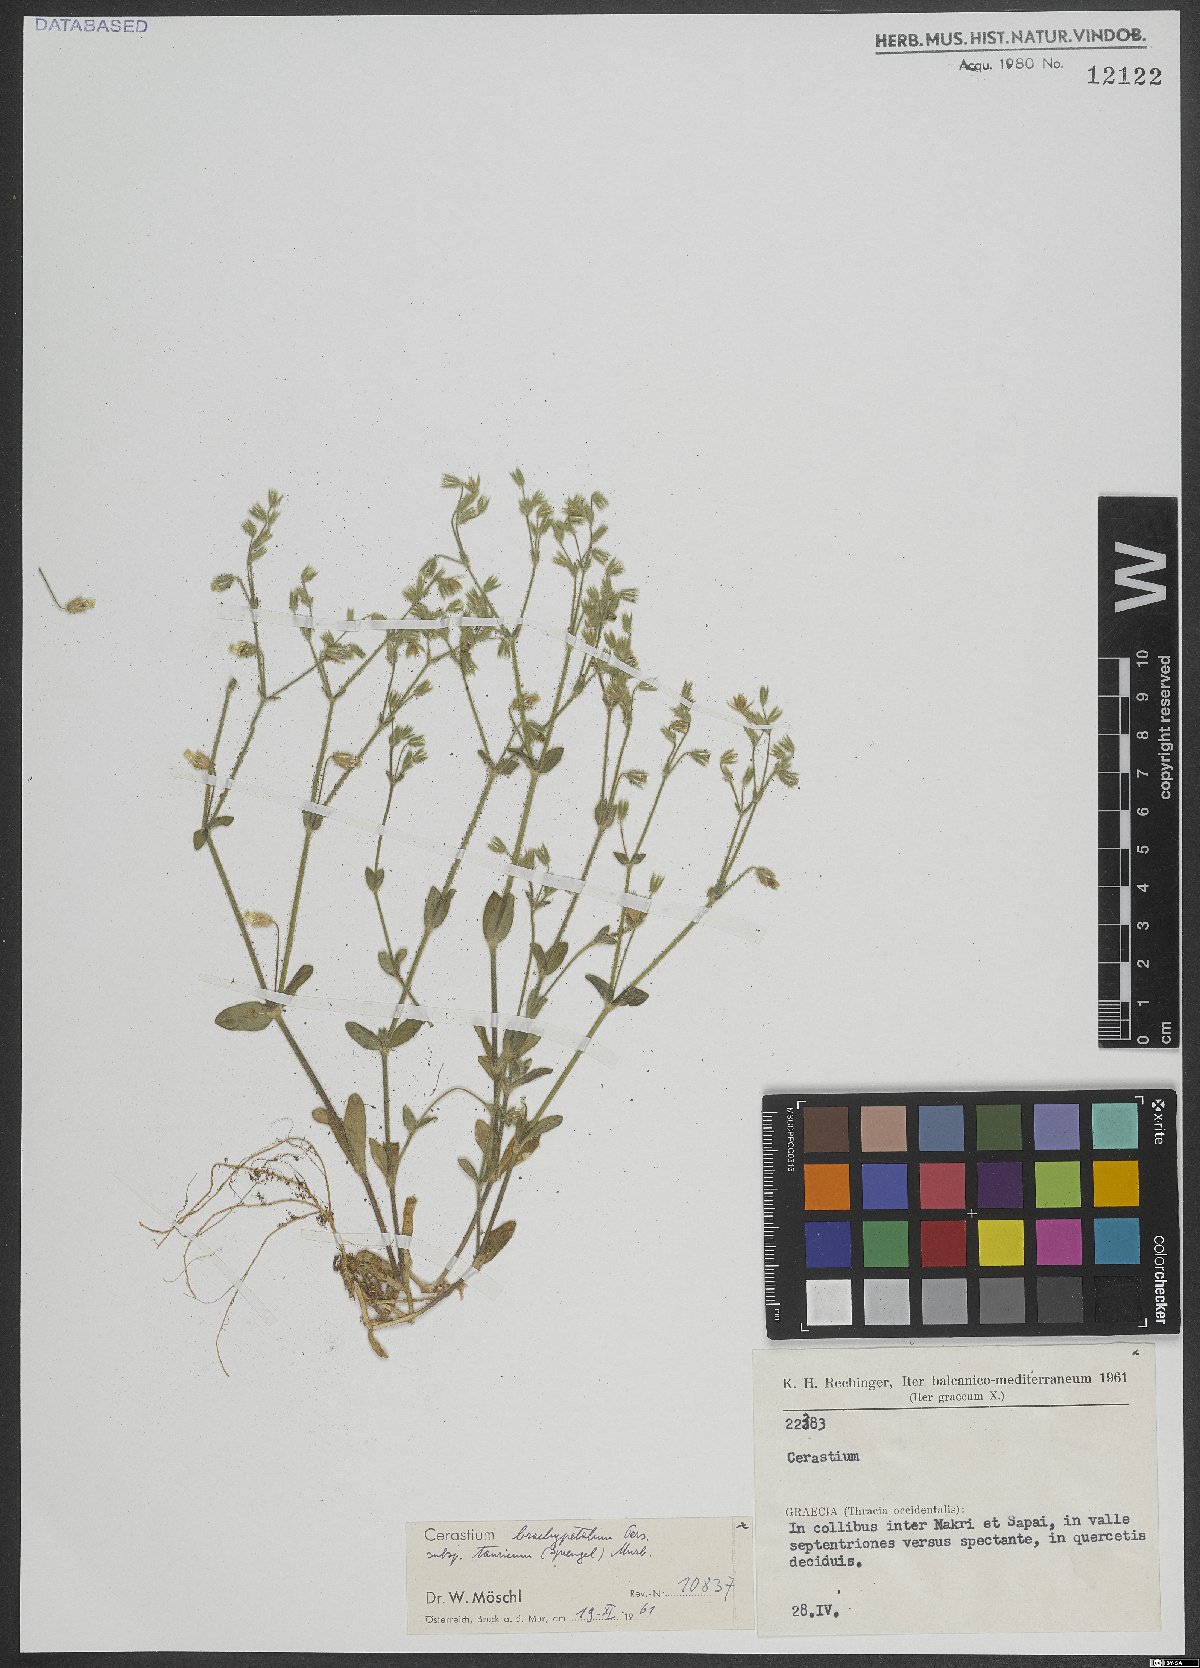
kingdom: Plantae
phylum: Tracheophyta
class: Magnoliopsida
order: Caryophyllales
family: Caryophyllaceae
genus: Cerastium
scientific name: Cerastium brachypetalum
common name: Grey mouse-ear
